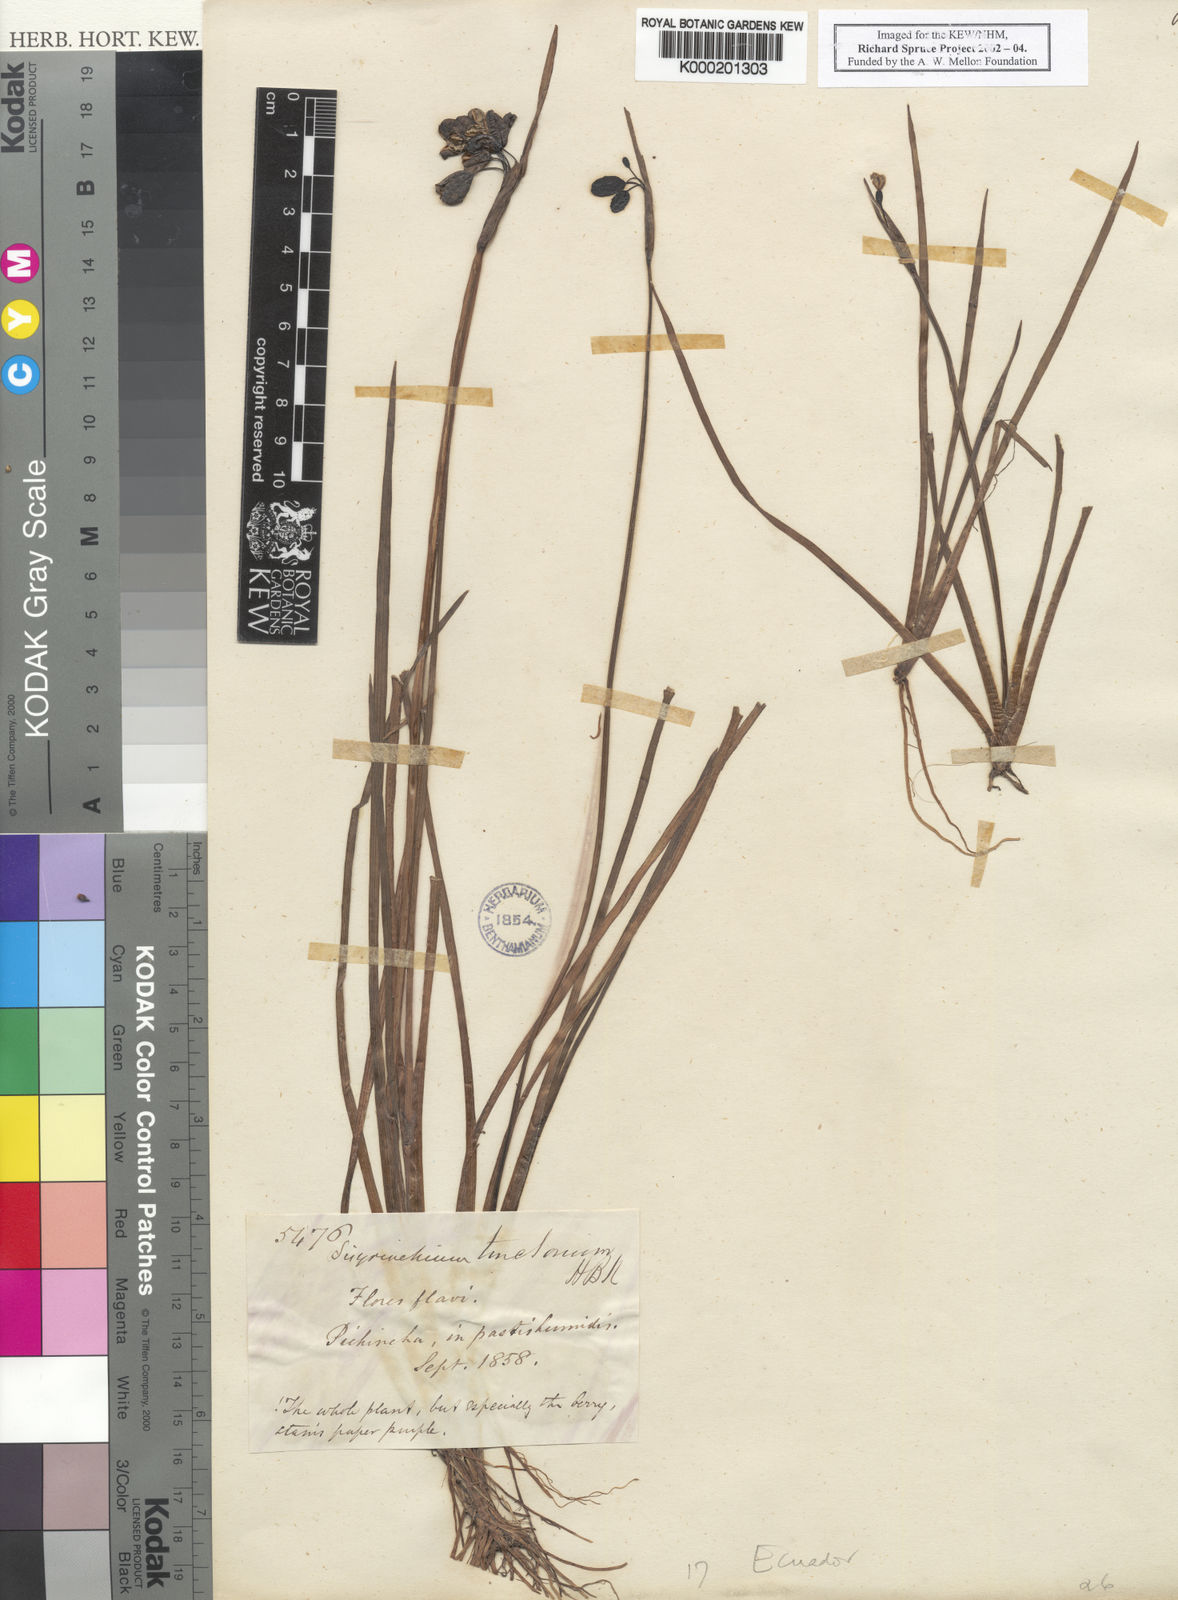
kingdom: Plantae
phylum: Tracheophyta
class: Liliopsida
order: Asparagales
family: Iridaceae
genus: Sisyrinchium
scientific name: Sisyrinchium tinctorium
